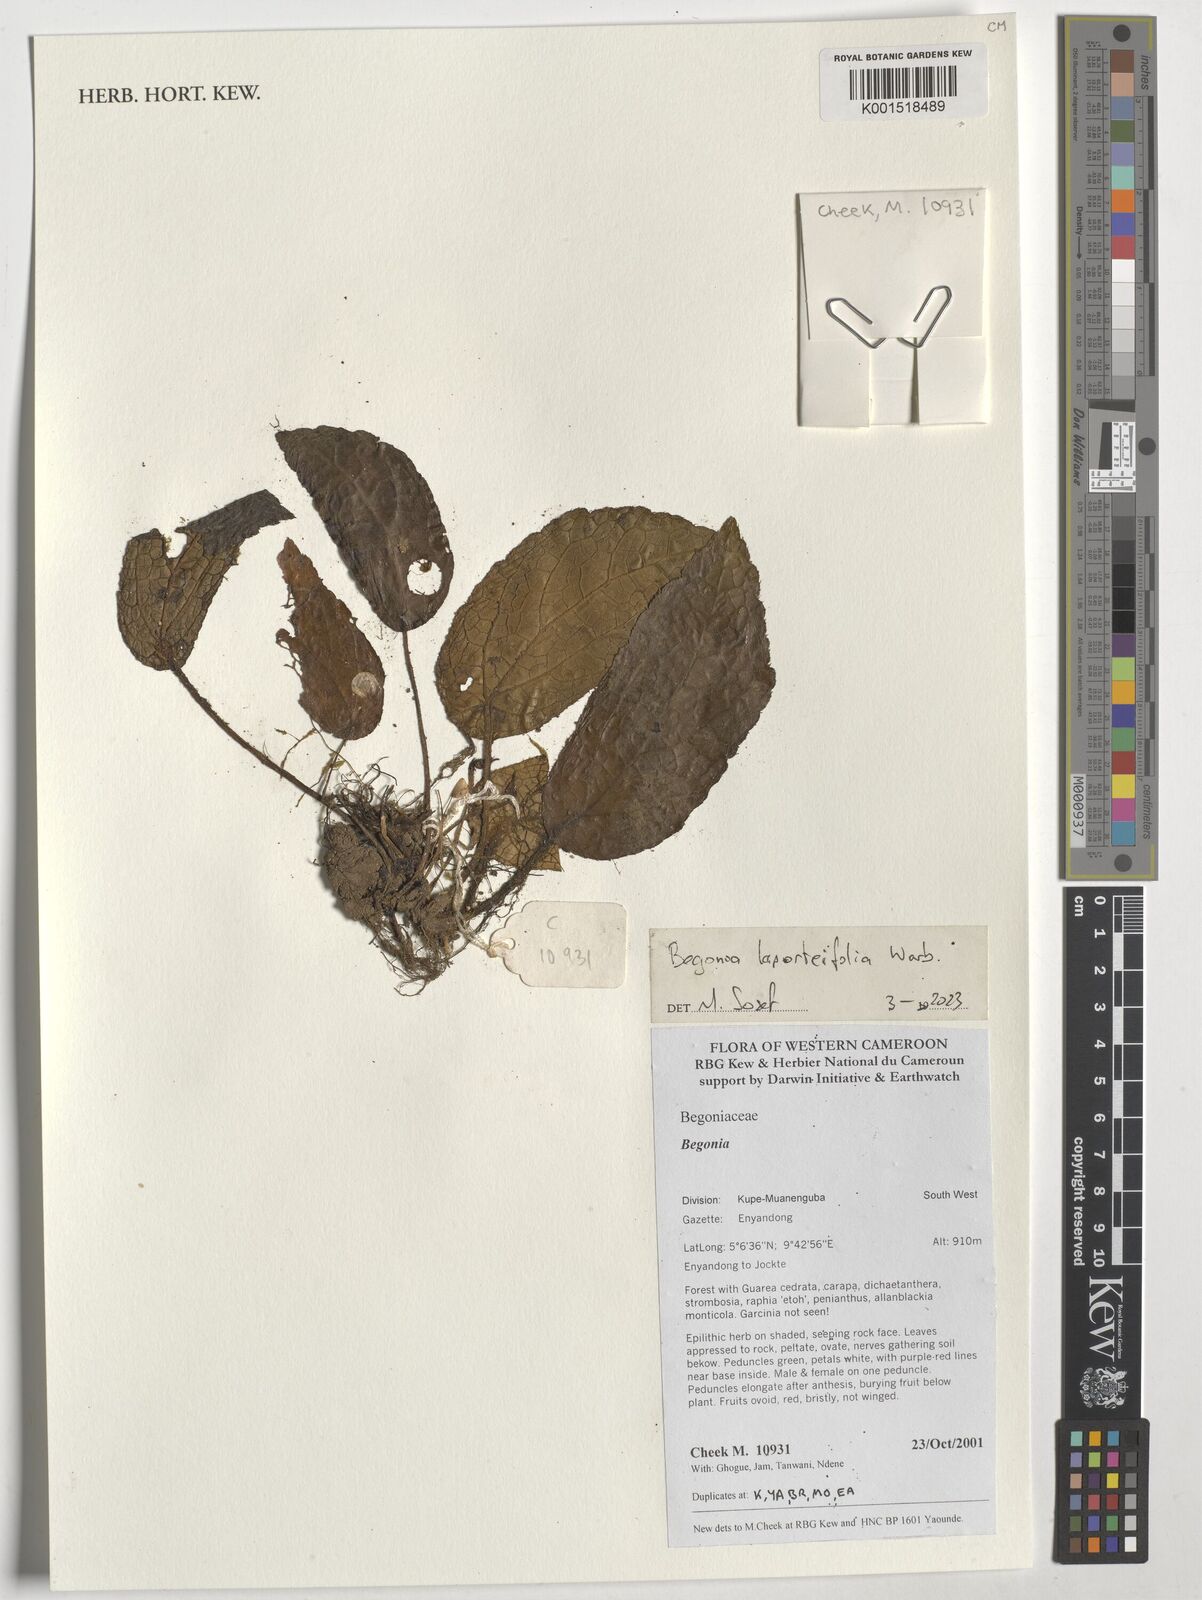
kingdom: Plantae
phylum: Tracheophyta
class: Magnoliopsida
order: Cucurbitales
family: Begoniaceae
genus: Begonia
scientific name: Begonia laporteifolia
